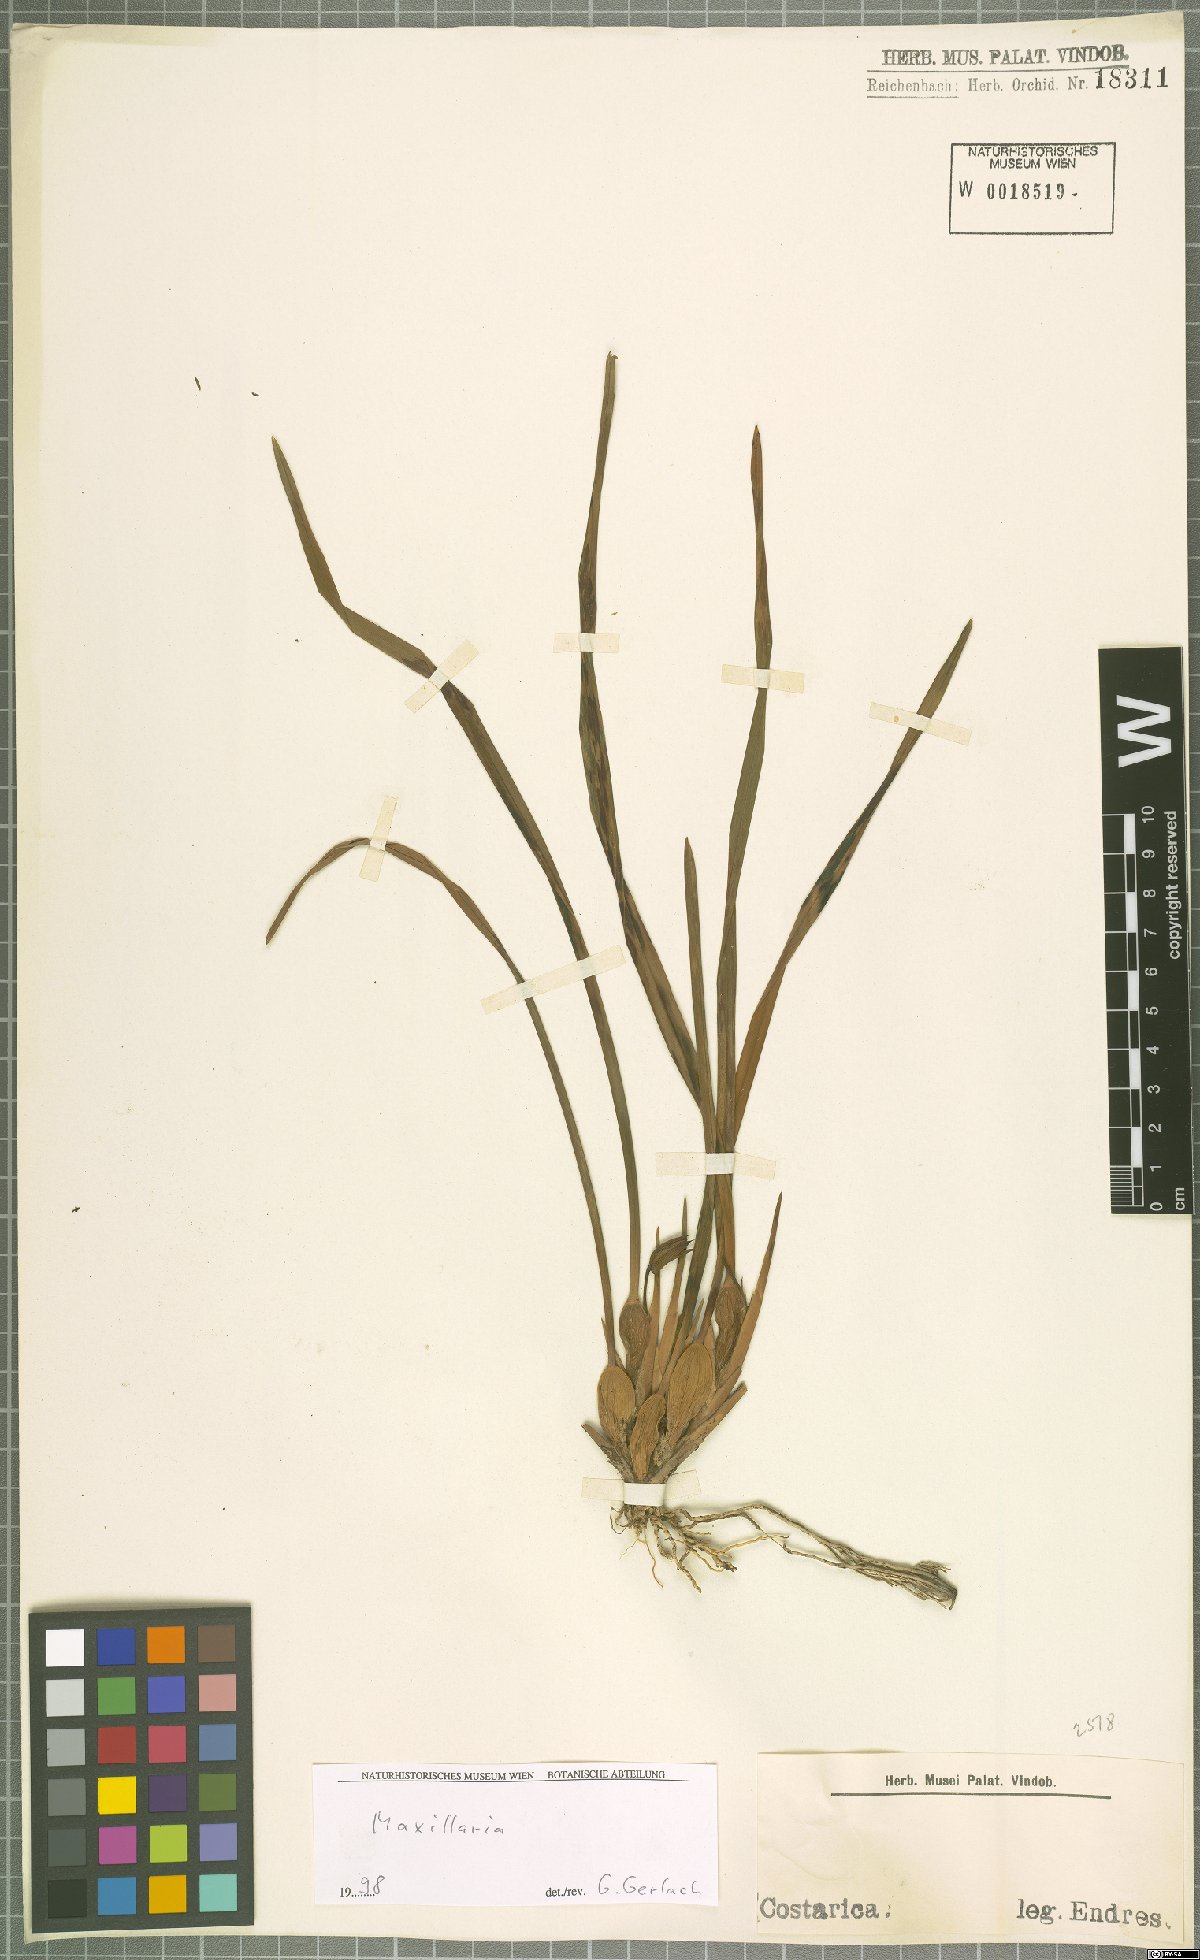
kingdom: Plantae
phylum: Tracheophyta
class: Liliopsida
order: Asparagales
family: Orchidaceae
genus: Maxillaria
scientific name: Maxillaria
